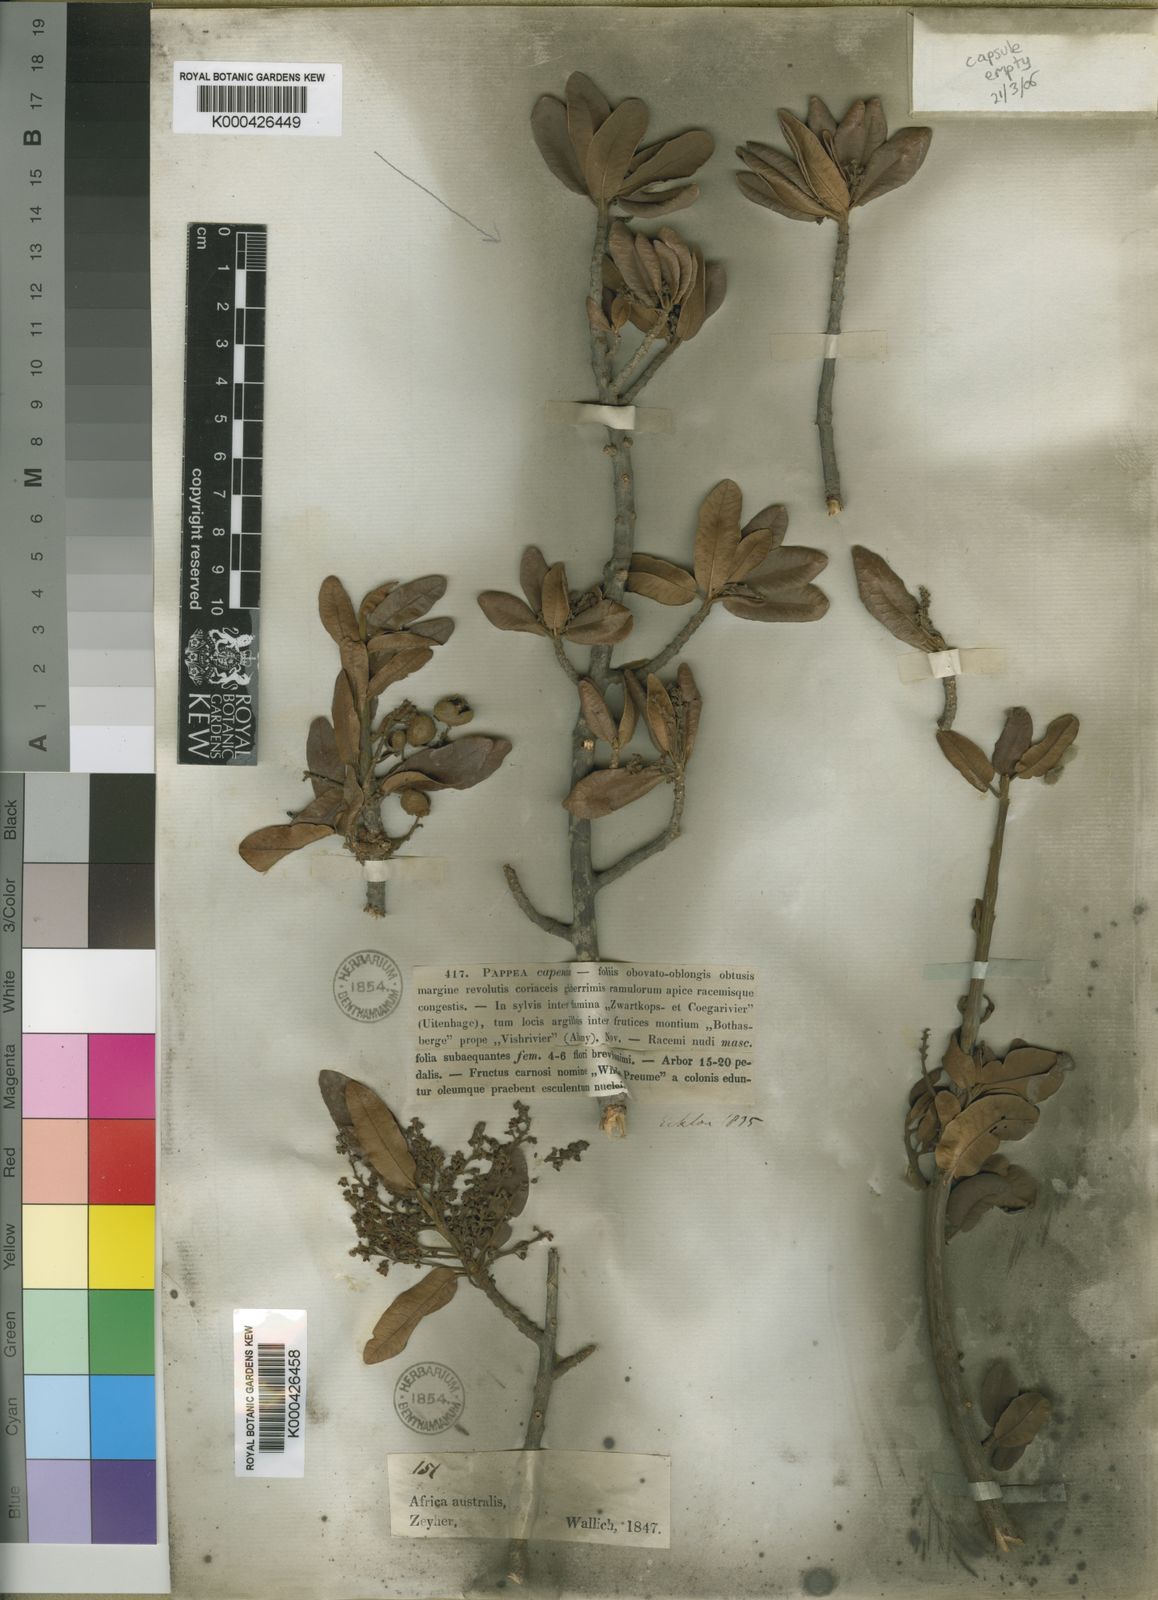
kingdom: Plantae
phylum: Tracheophyta
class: Magnoliopsida
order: Sapindales
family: Sapindaceae
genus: Pappea
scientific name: Pappea capensis
